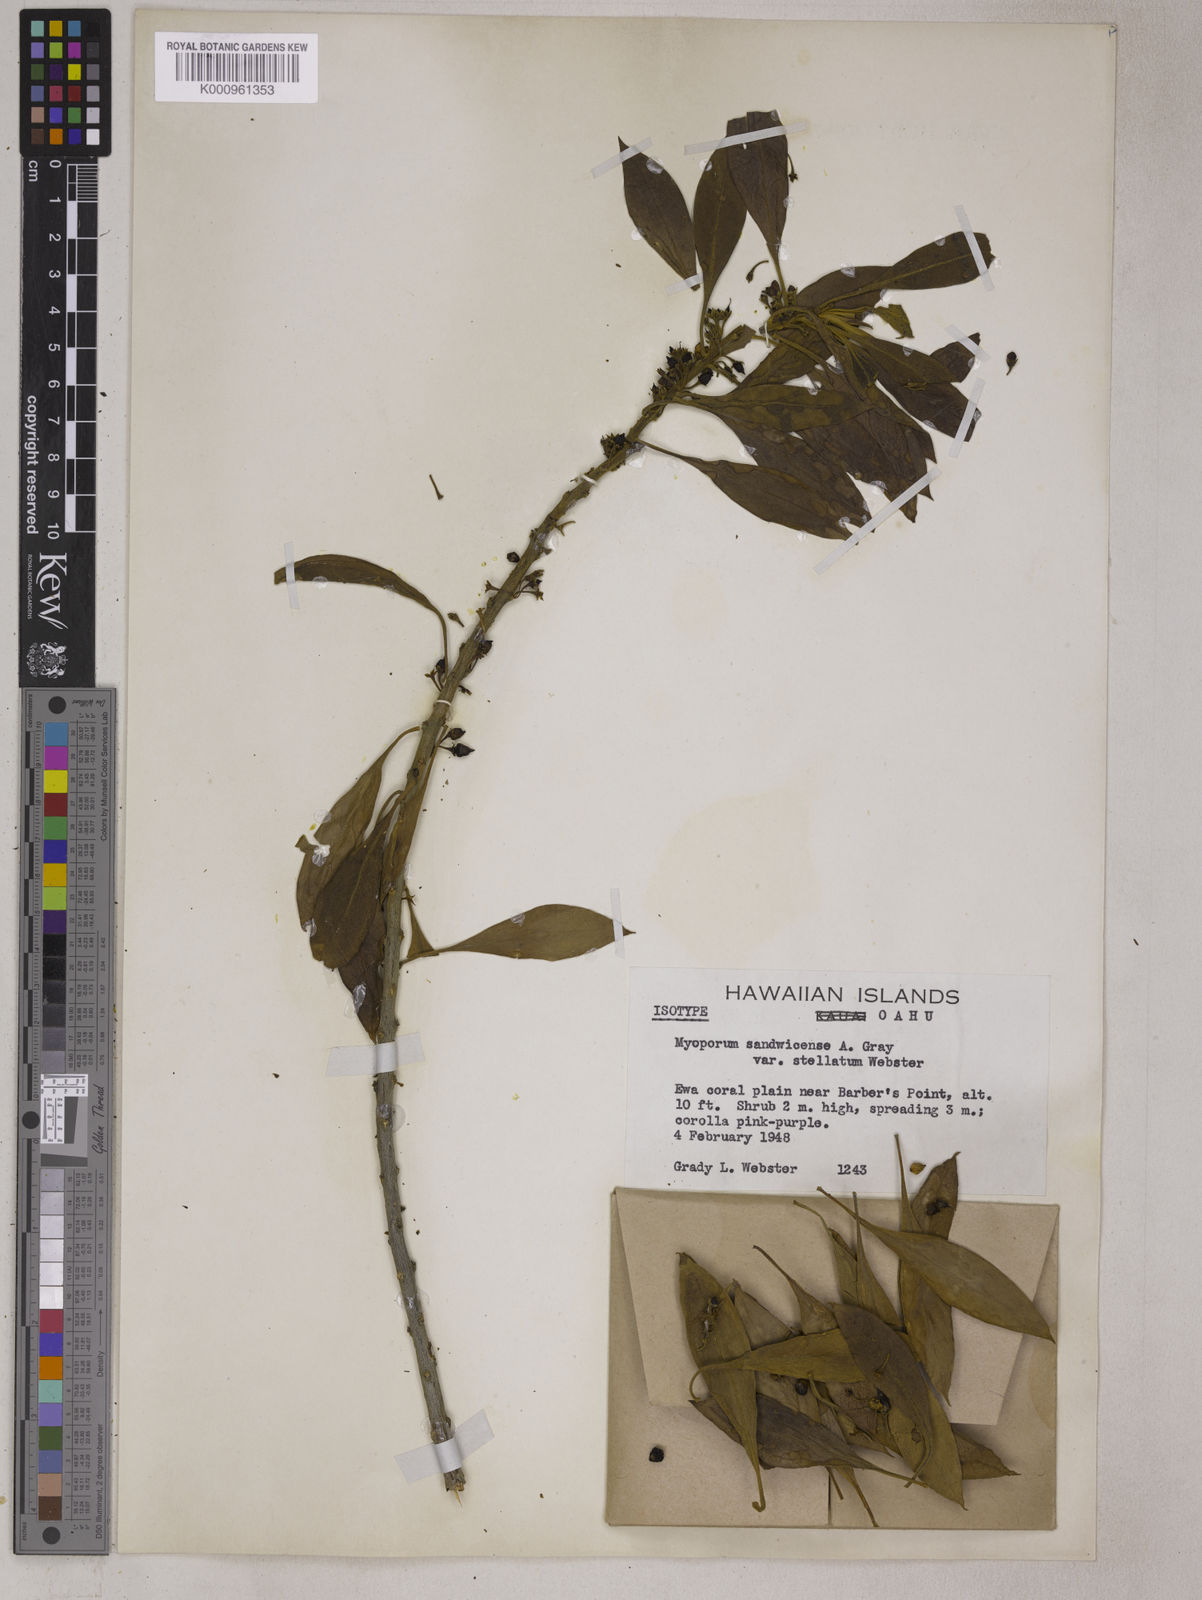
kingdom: Plantae
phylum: Tracheophyta
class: Magnoliopsida
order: Lamiales
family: Scrophulariaceae
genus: Myoporum
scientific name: Myoporum sandwicense
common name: Bastard-sandalwood
